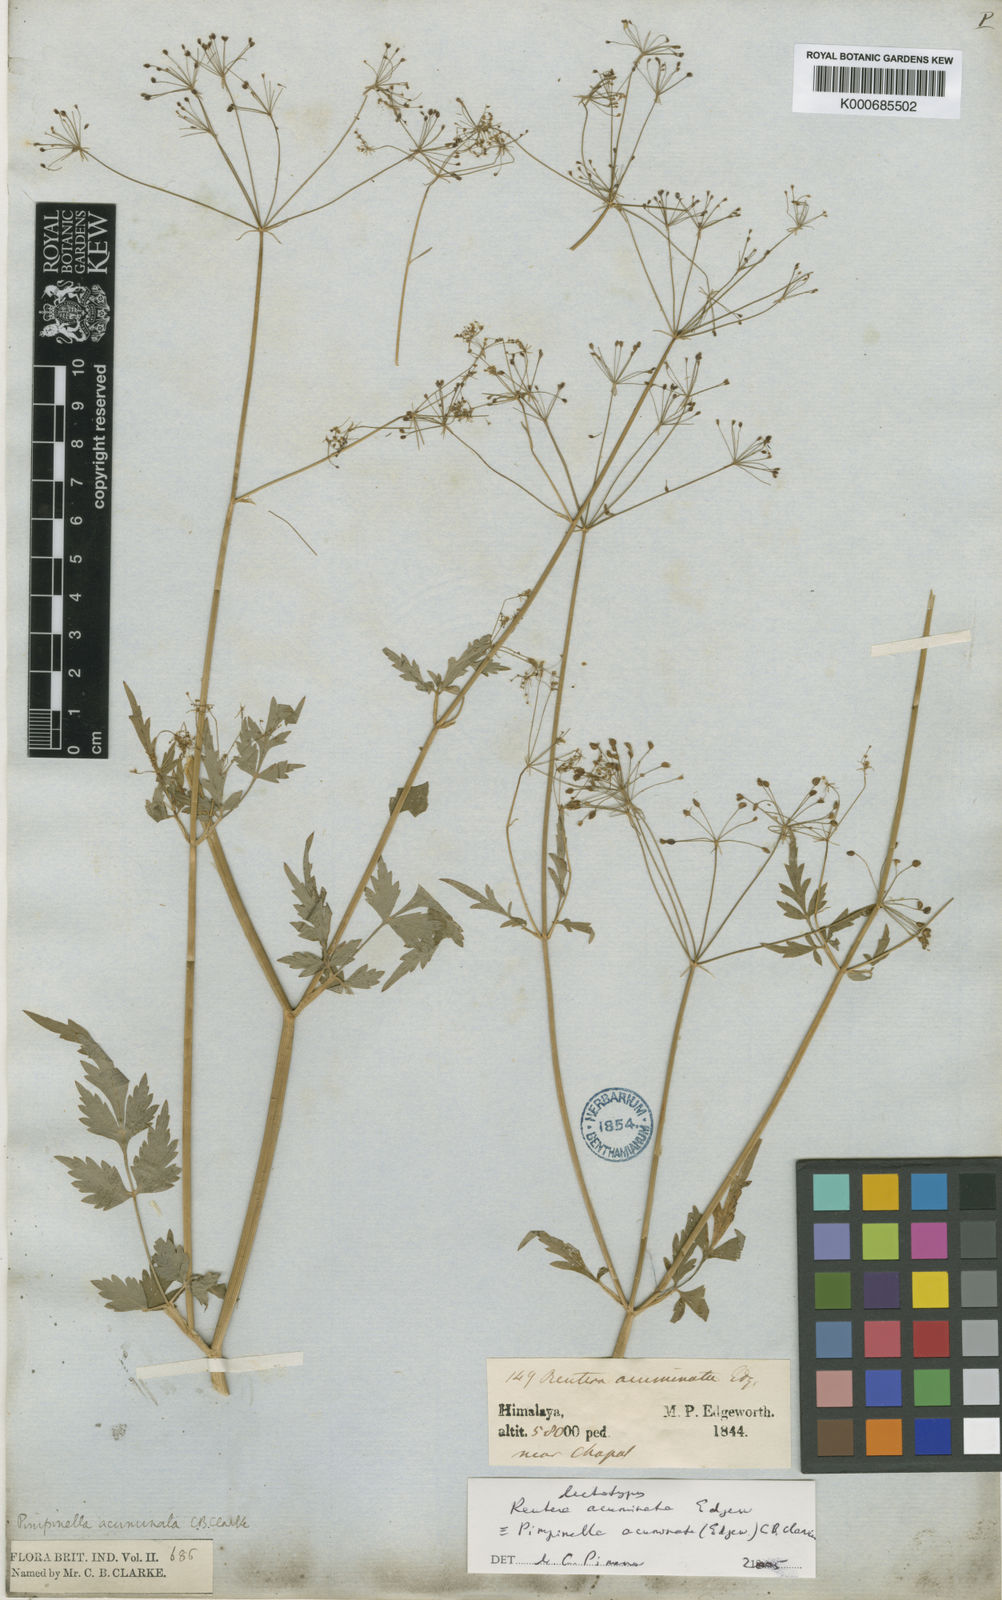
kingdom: Plantae
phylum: Tracheophyta
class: Magnoliopsida
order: Apiales
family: Apiaceae
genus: Pimpinella
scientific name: Pimpinella acuminata
